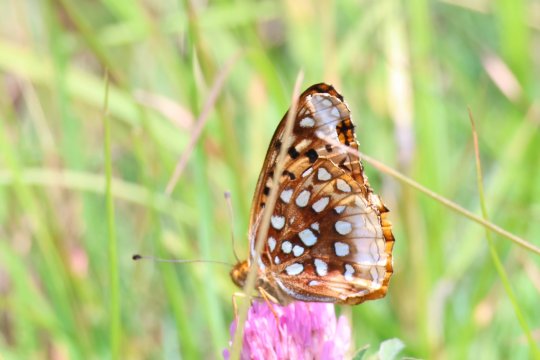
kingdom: Animalia
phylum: Arthropoda
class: Insecta
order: Lepidoptera
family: Nymphalidae
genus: Speyeria
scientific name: Speyeria cybele
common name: Great Spangled Fritillary
